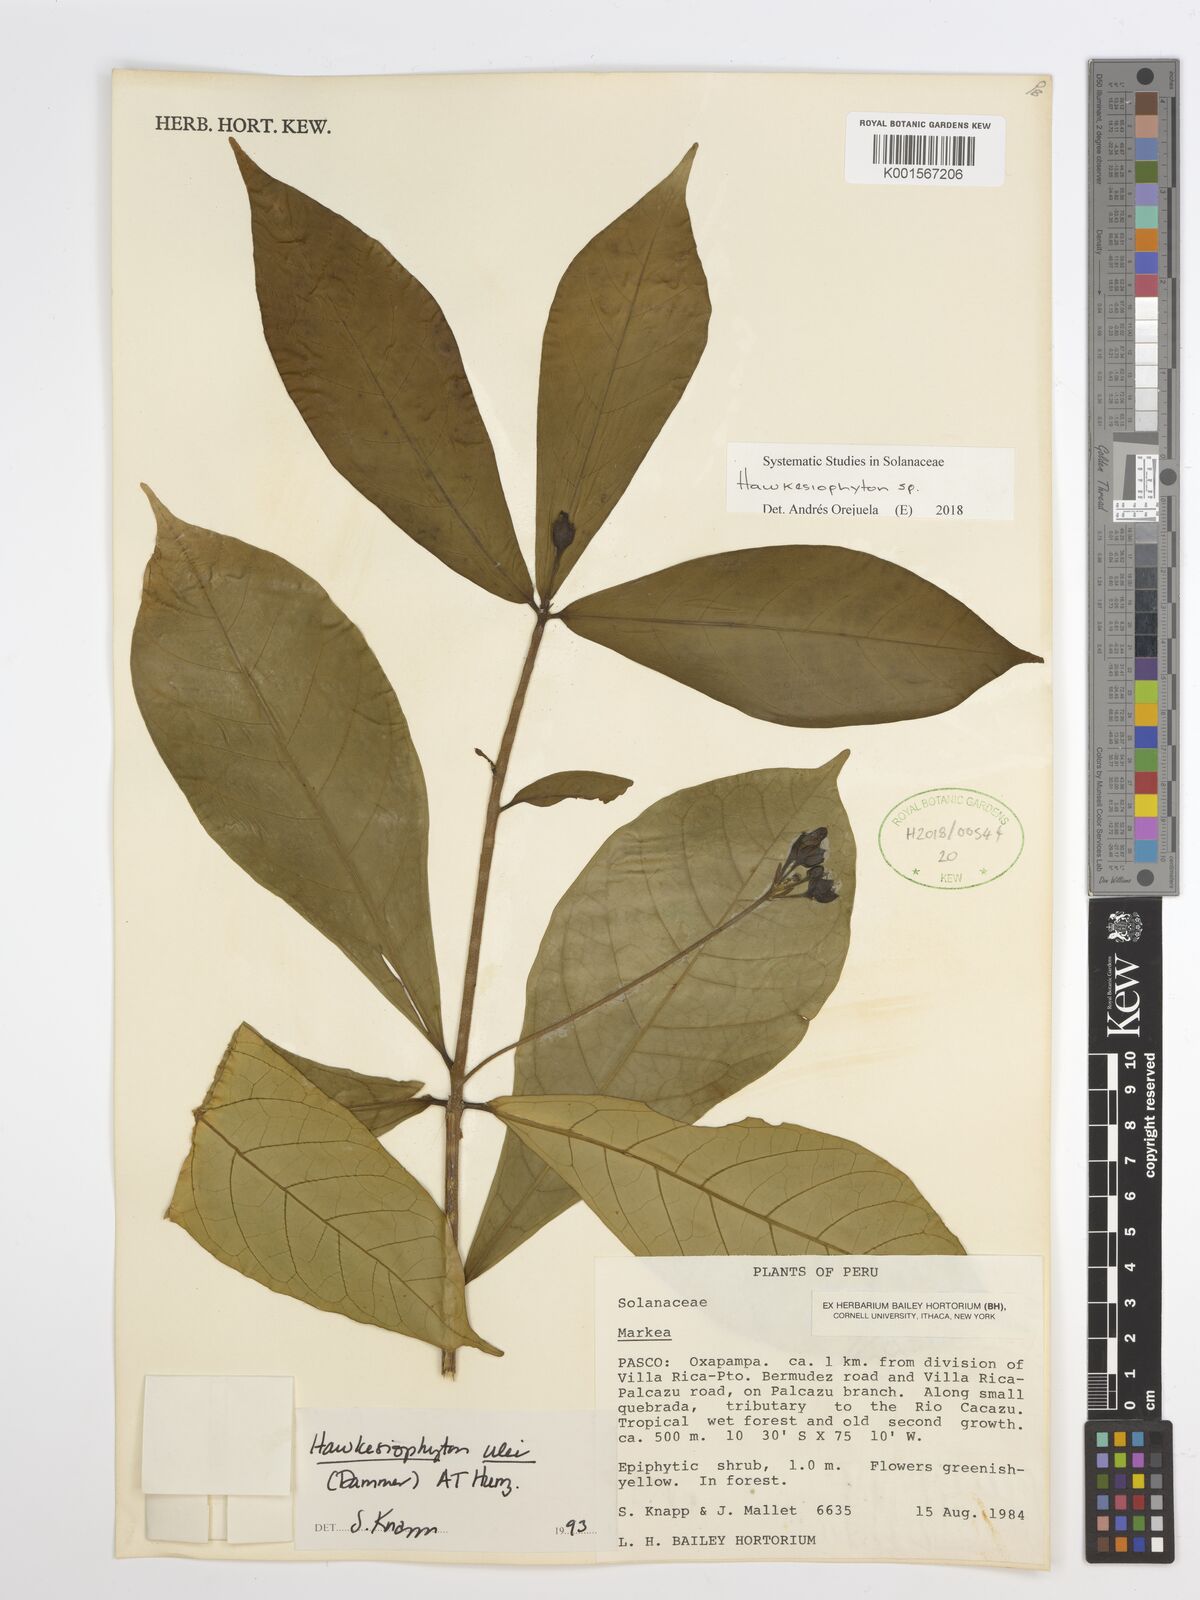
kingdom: Plantae
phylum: Tracheophyta
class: Magnoliopsida
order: Solanales
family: Solanaceae
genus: Hawkesiophyton
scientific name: Hawkesiophyton
